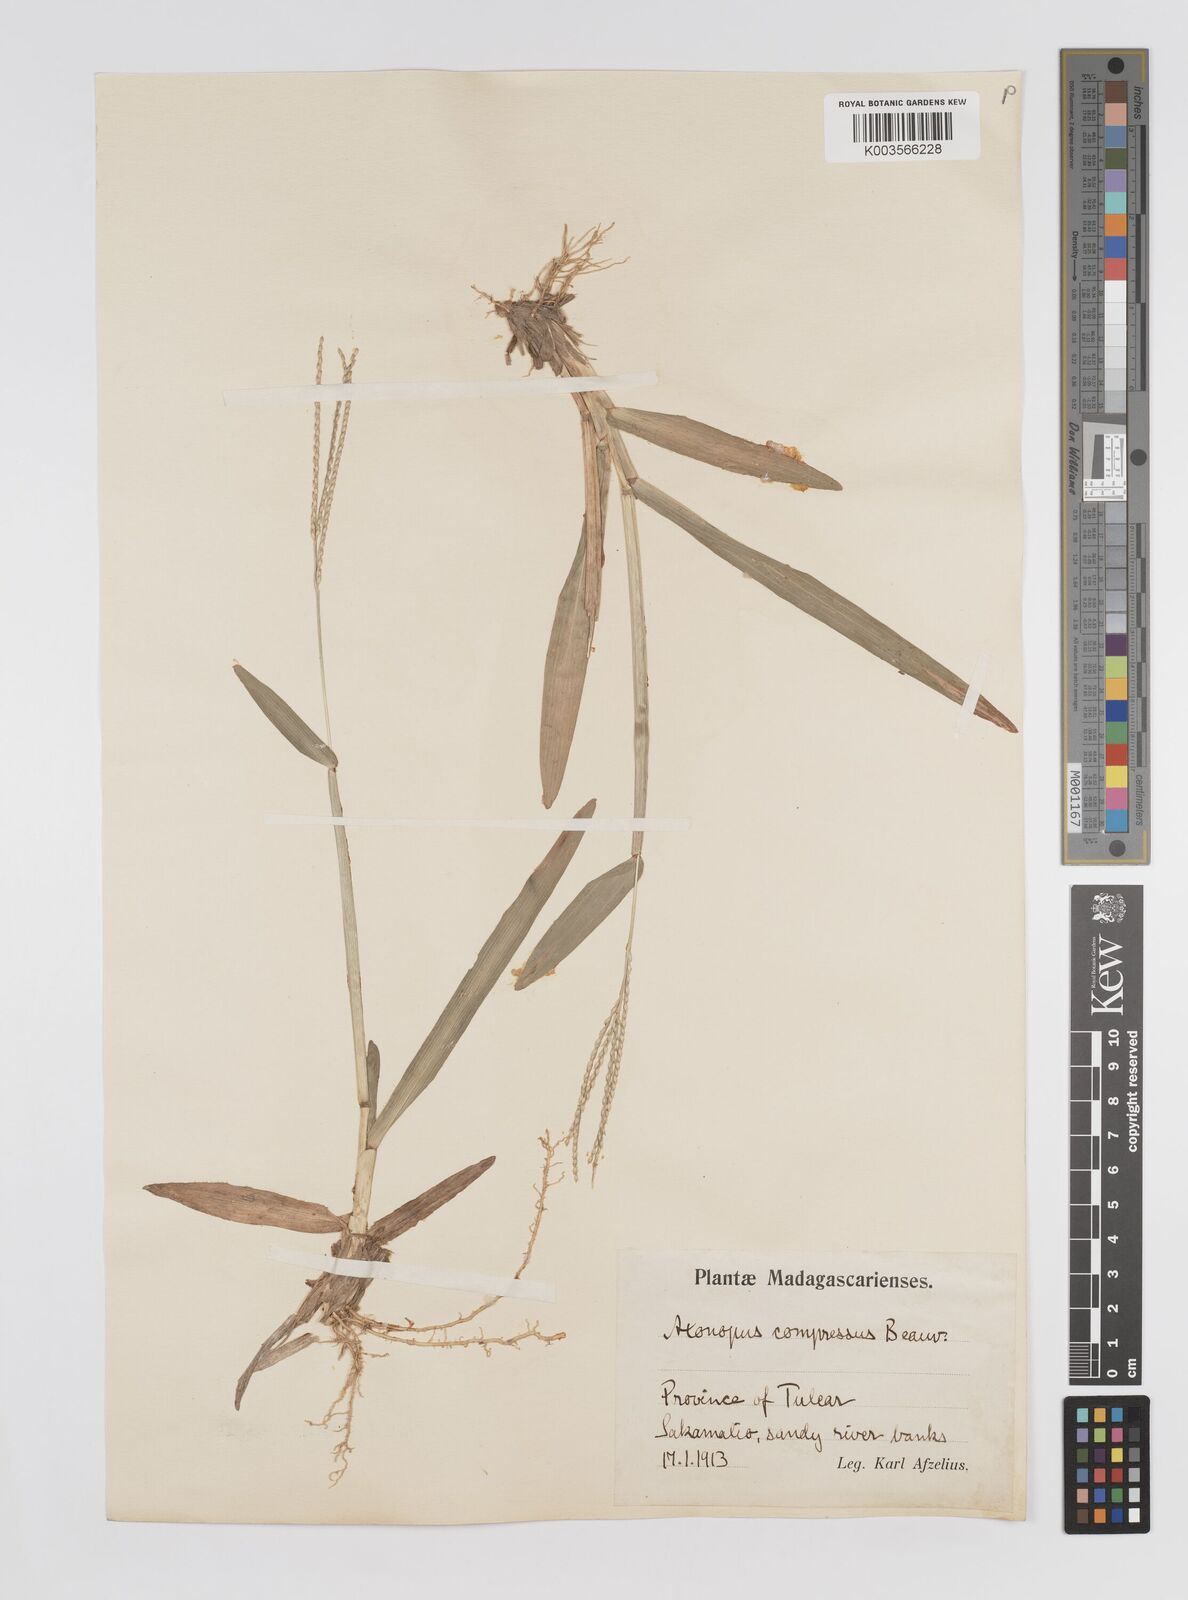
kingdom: Plantae
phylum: Tracheophyta
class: Liliopsida
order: Poales
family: Poaceae
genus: Axonopus
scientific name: Axonopus compressus
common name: American carpet grass
